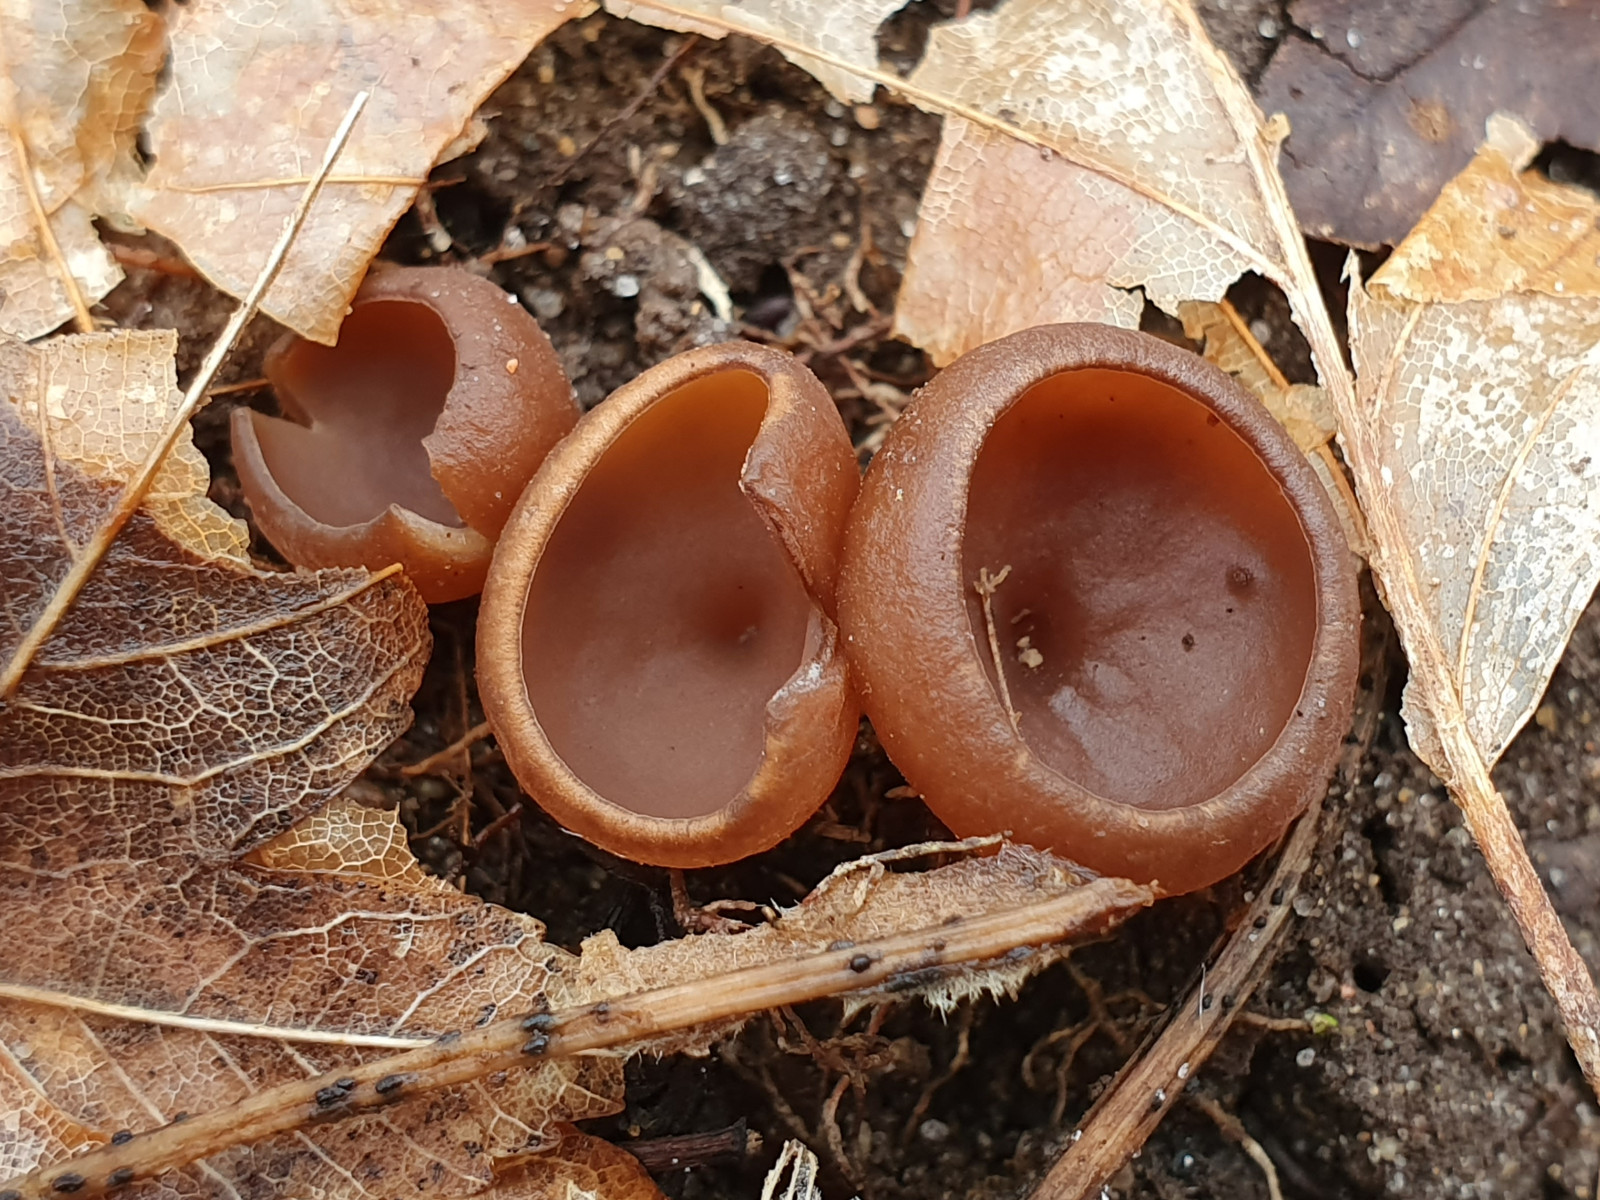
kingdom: Fungi
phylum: Ascomycota
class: Leotiomycetes
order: Helotiales
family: Sclerotiniaceae
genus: Dumontinia
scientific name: Dumontinia tuberosa
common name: anemone-knoldskive
